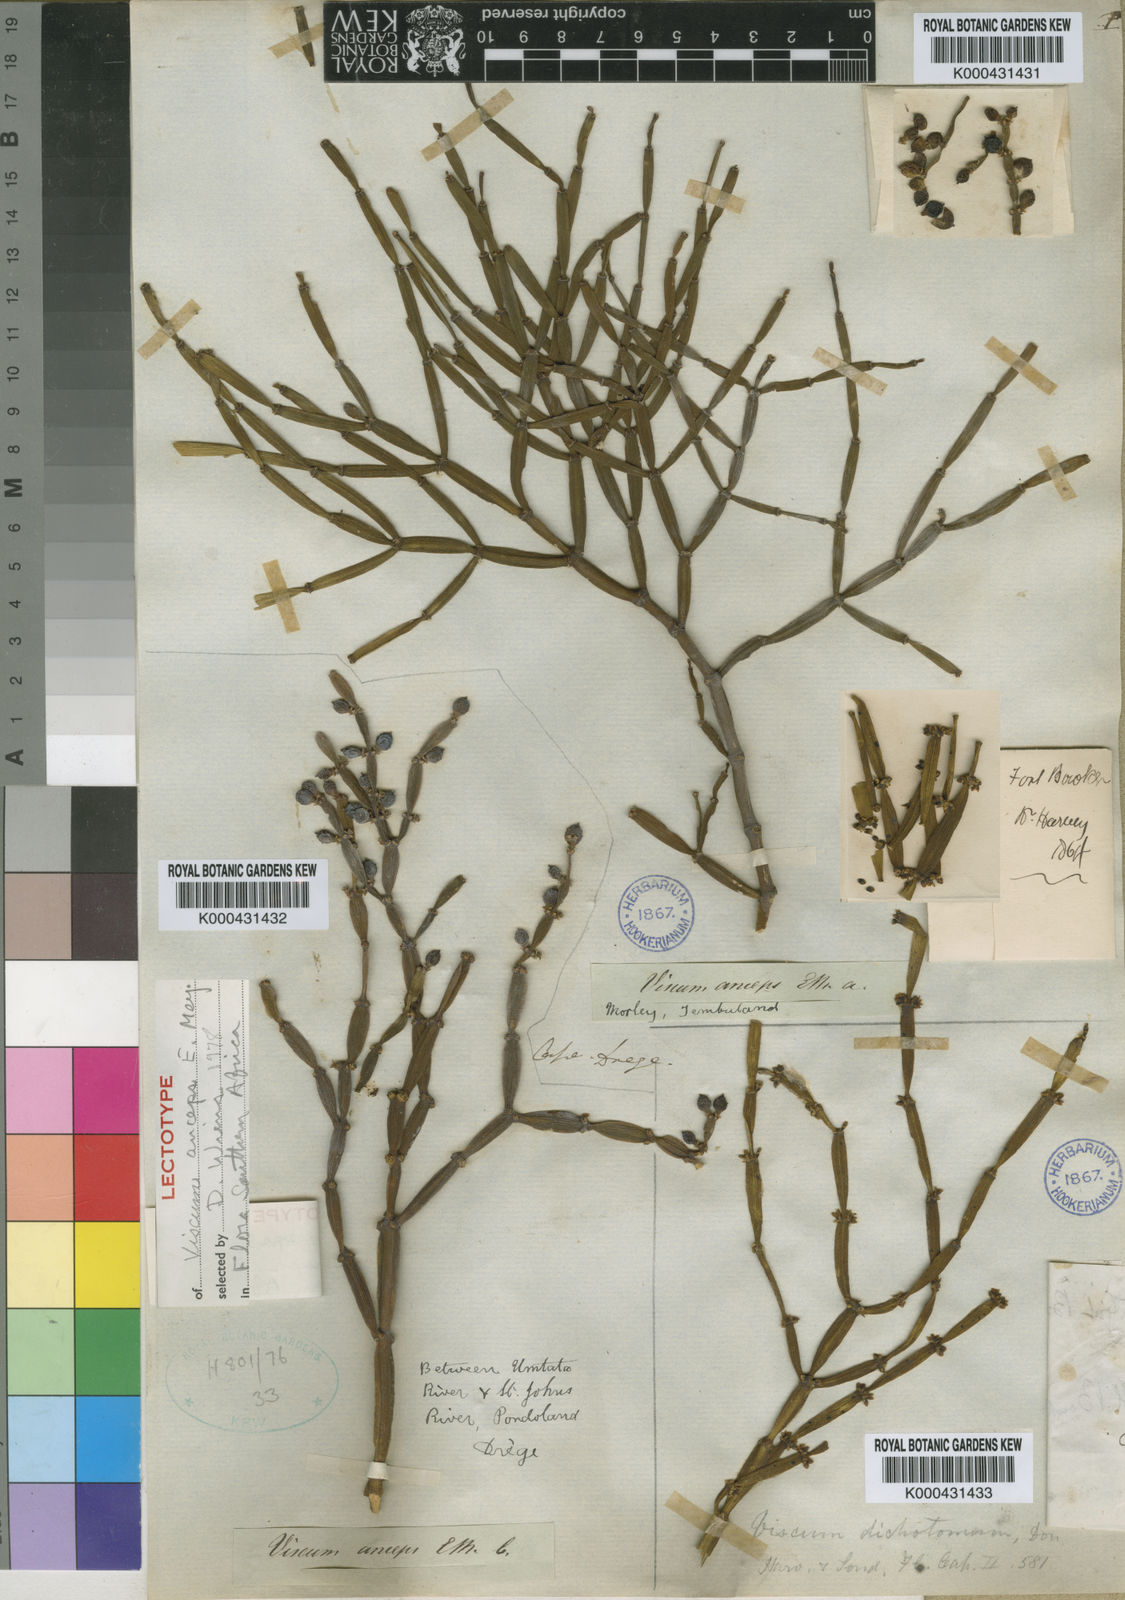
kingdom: Plantae
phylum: Tracheophyta
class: Magnoliopsida
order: Santalales
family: Viscaceae
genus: Viscum
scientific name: Viscum
